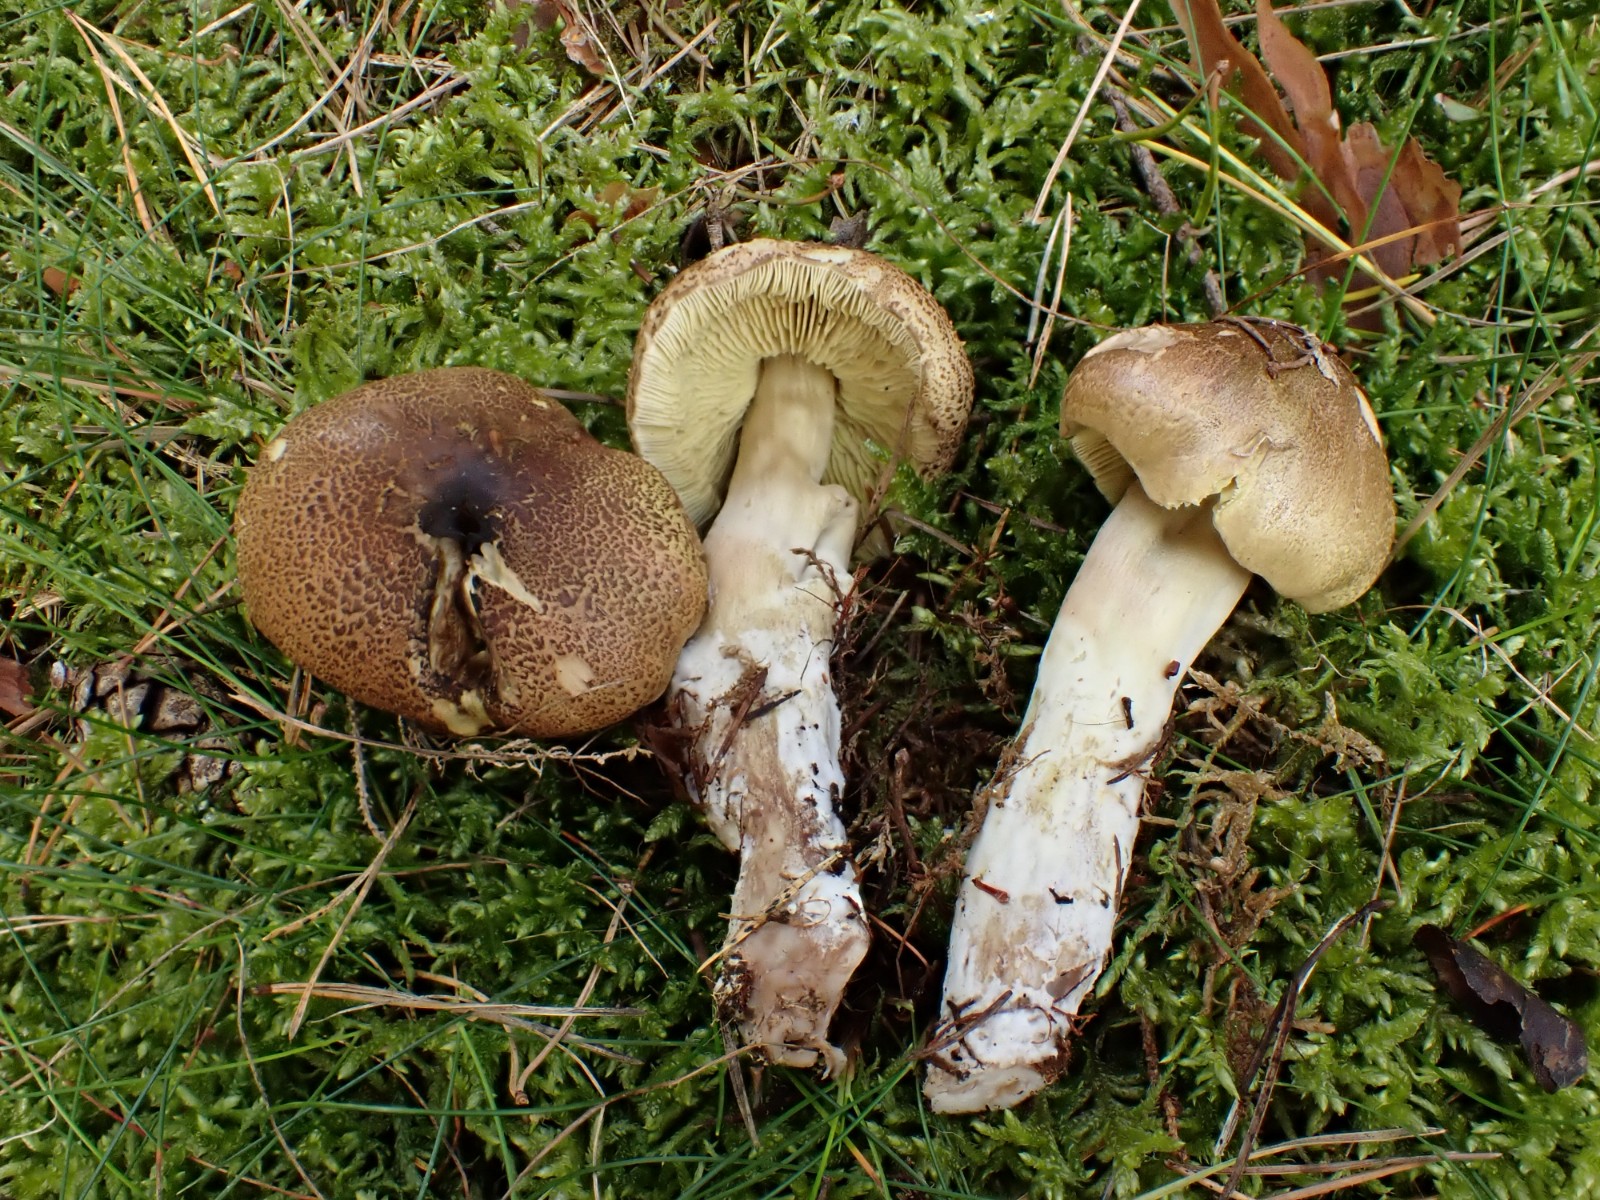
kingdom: Fungi
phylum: Basidiomycota
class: Agaricomycetes
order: Agaricales
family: Tricholomataceae
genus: Tricholoma
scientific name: Tricholoma aestuans
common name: kegle-ridderhat
